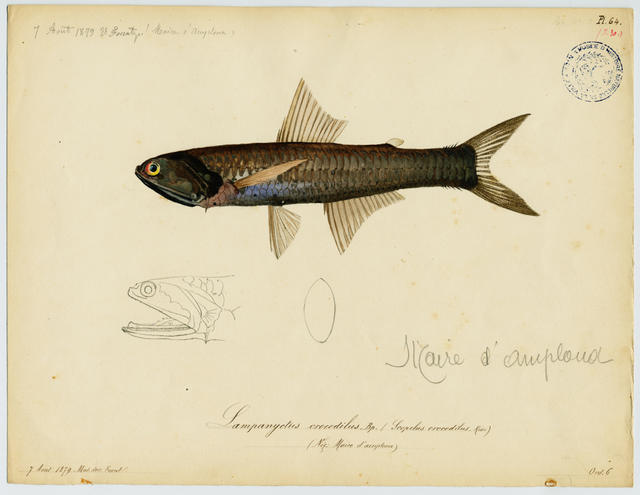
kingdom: Animalia
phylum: Chordata
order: Myctophiformes
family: Myctophidae
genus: Lampanyctus
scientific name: Lampanyctus crocodilus
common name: Jewel lanternfish
